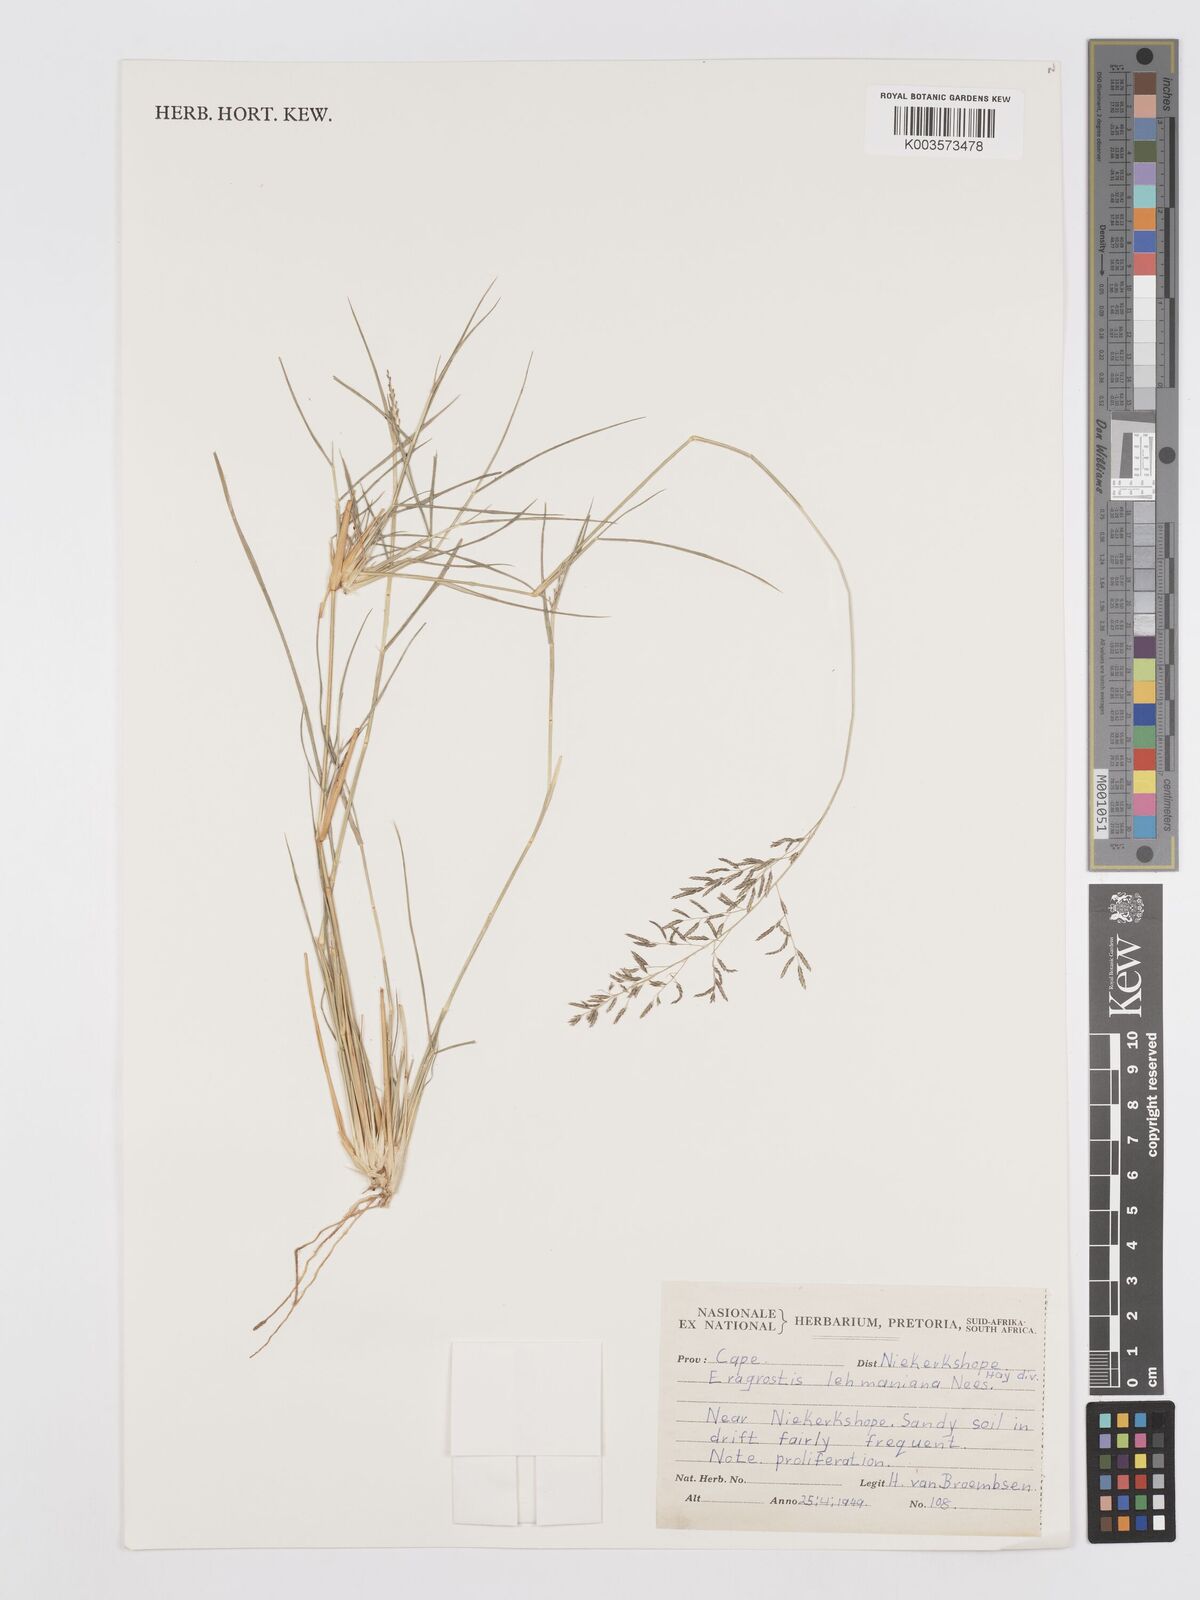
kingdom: Plantae
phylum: Tracheophyta
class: Liliopsida
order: Poales
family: Poaceae
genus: Eragrostis
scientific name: Eragrostis lehmanniana
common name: Lehmann lovegrass
